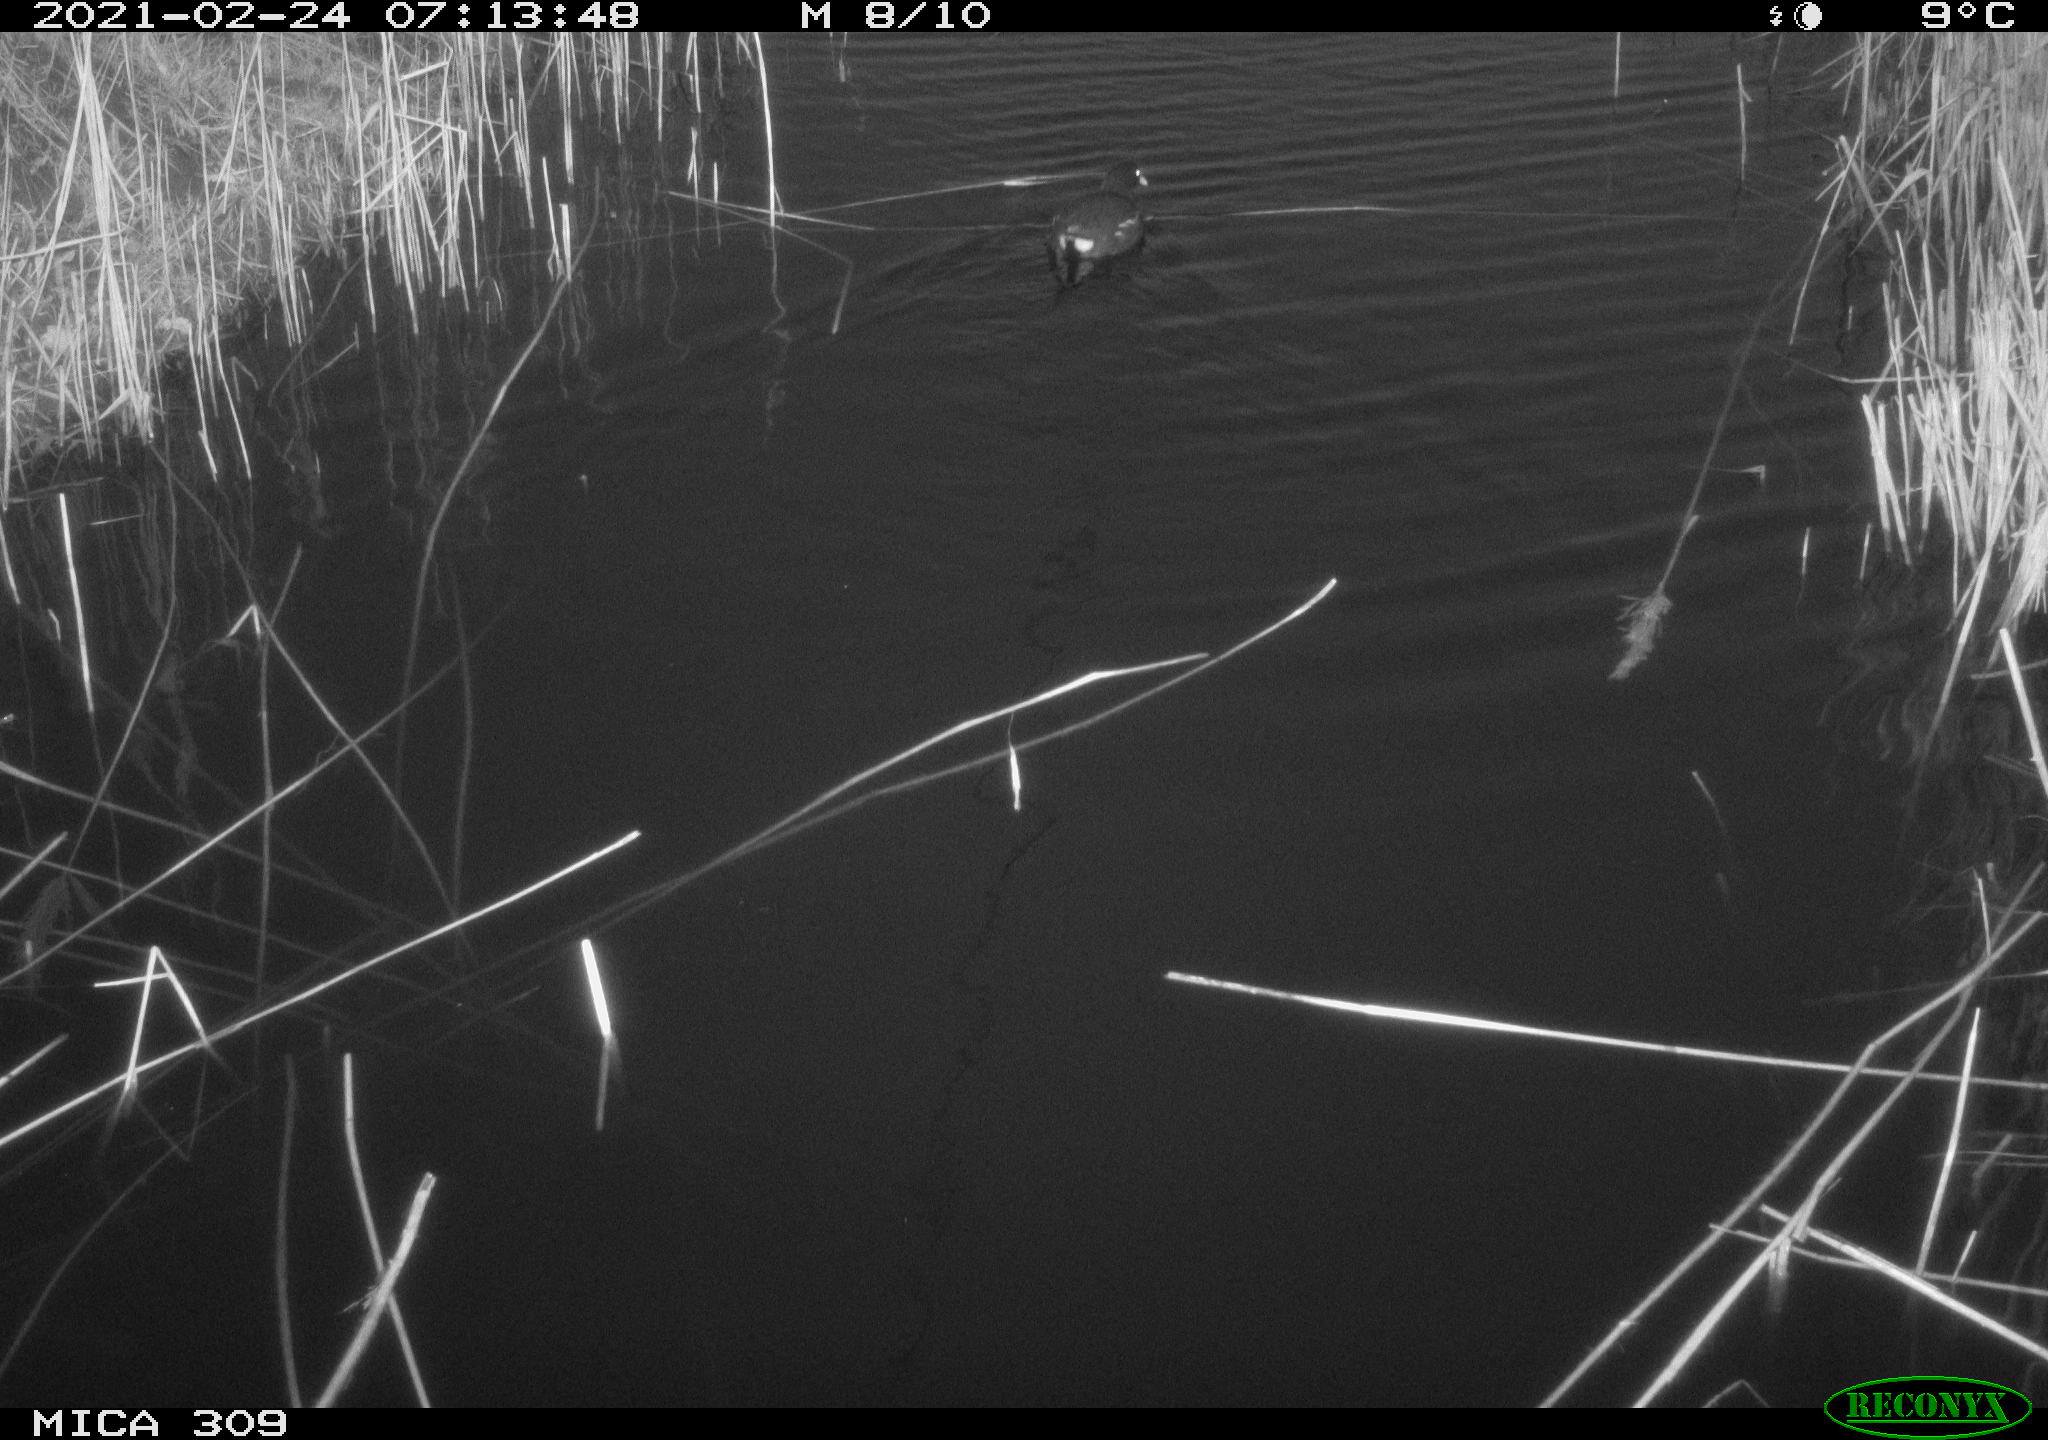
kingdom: Animalia
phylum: Chordata
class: Aves
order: Gruiformes
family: Rallidae
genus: Gallinula
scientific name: Gallinula chloropus
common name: Common moorhen
